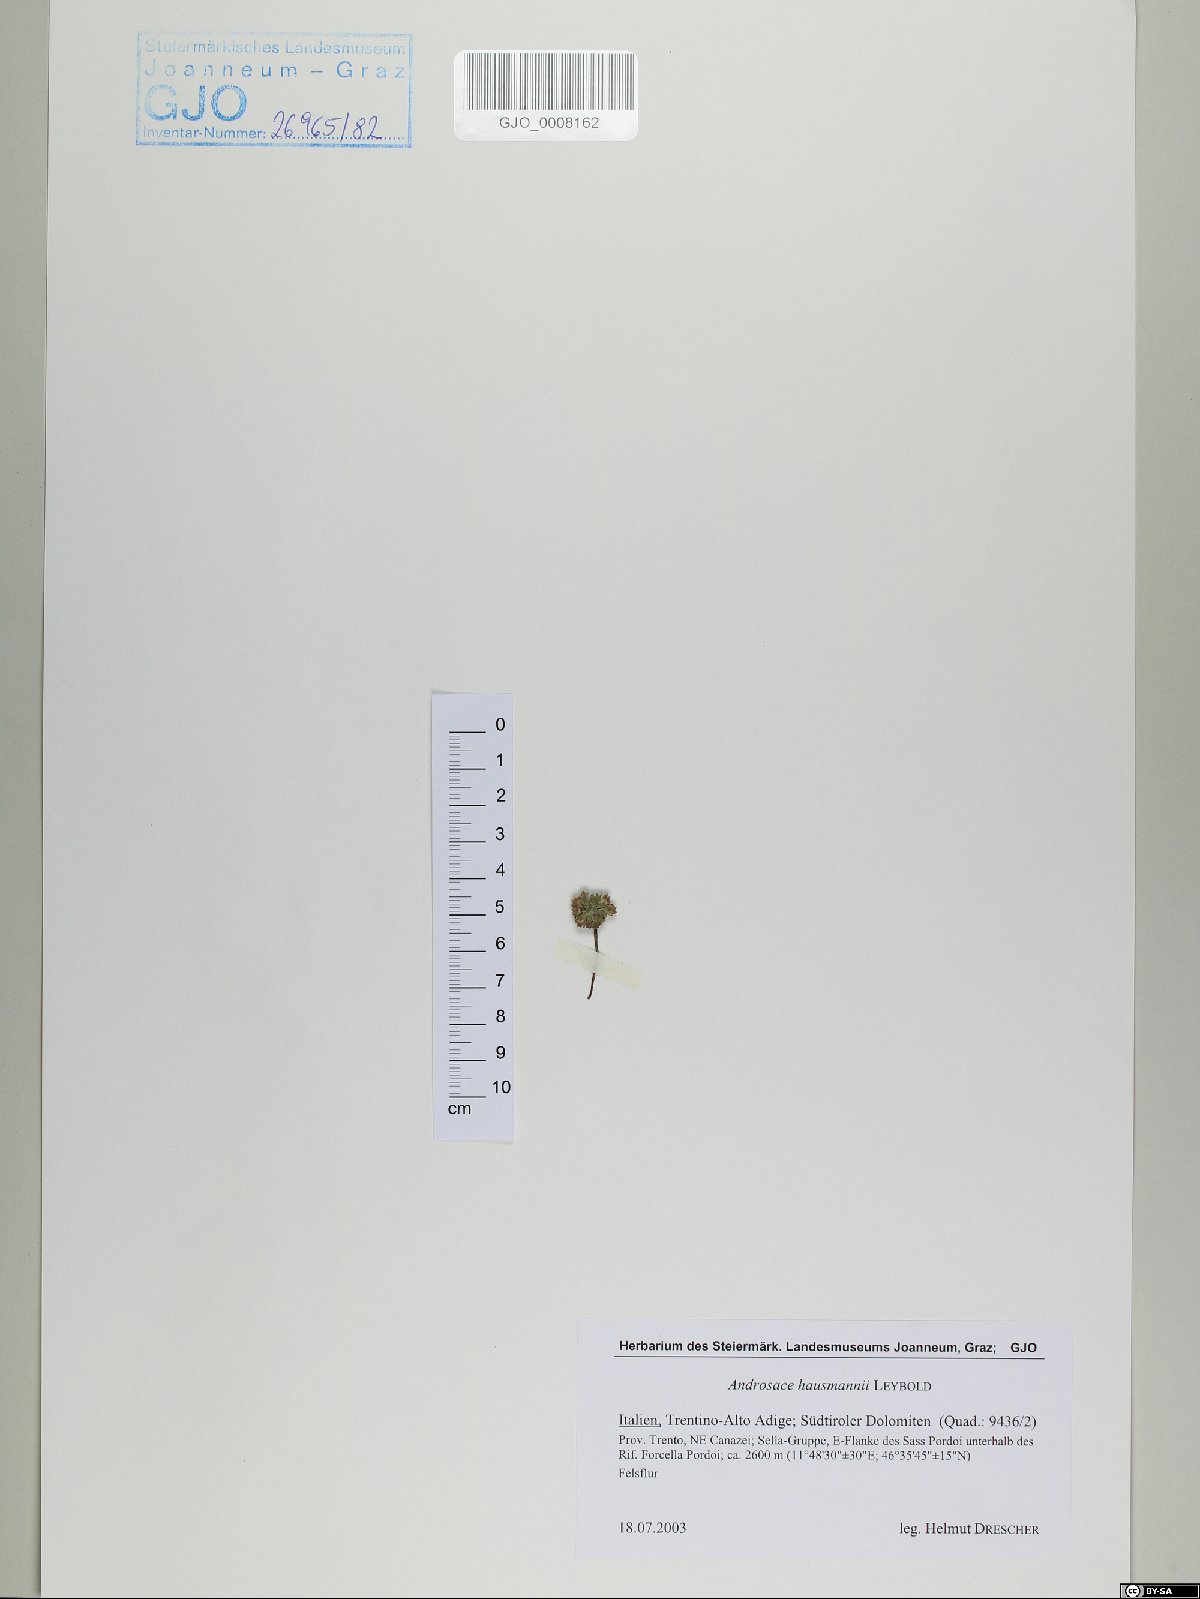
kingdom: Plantae
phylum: Tracheophyta
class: Magnoliopsida
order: Ericales
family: Primulaceae
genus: Androsace
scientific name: Androsace hausmannii
